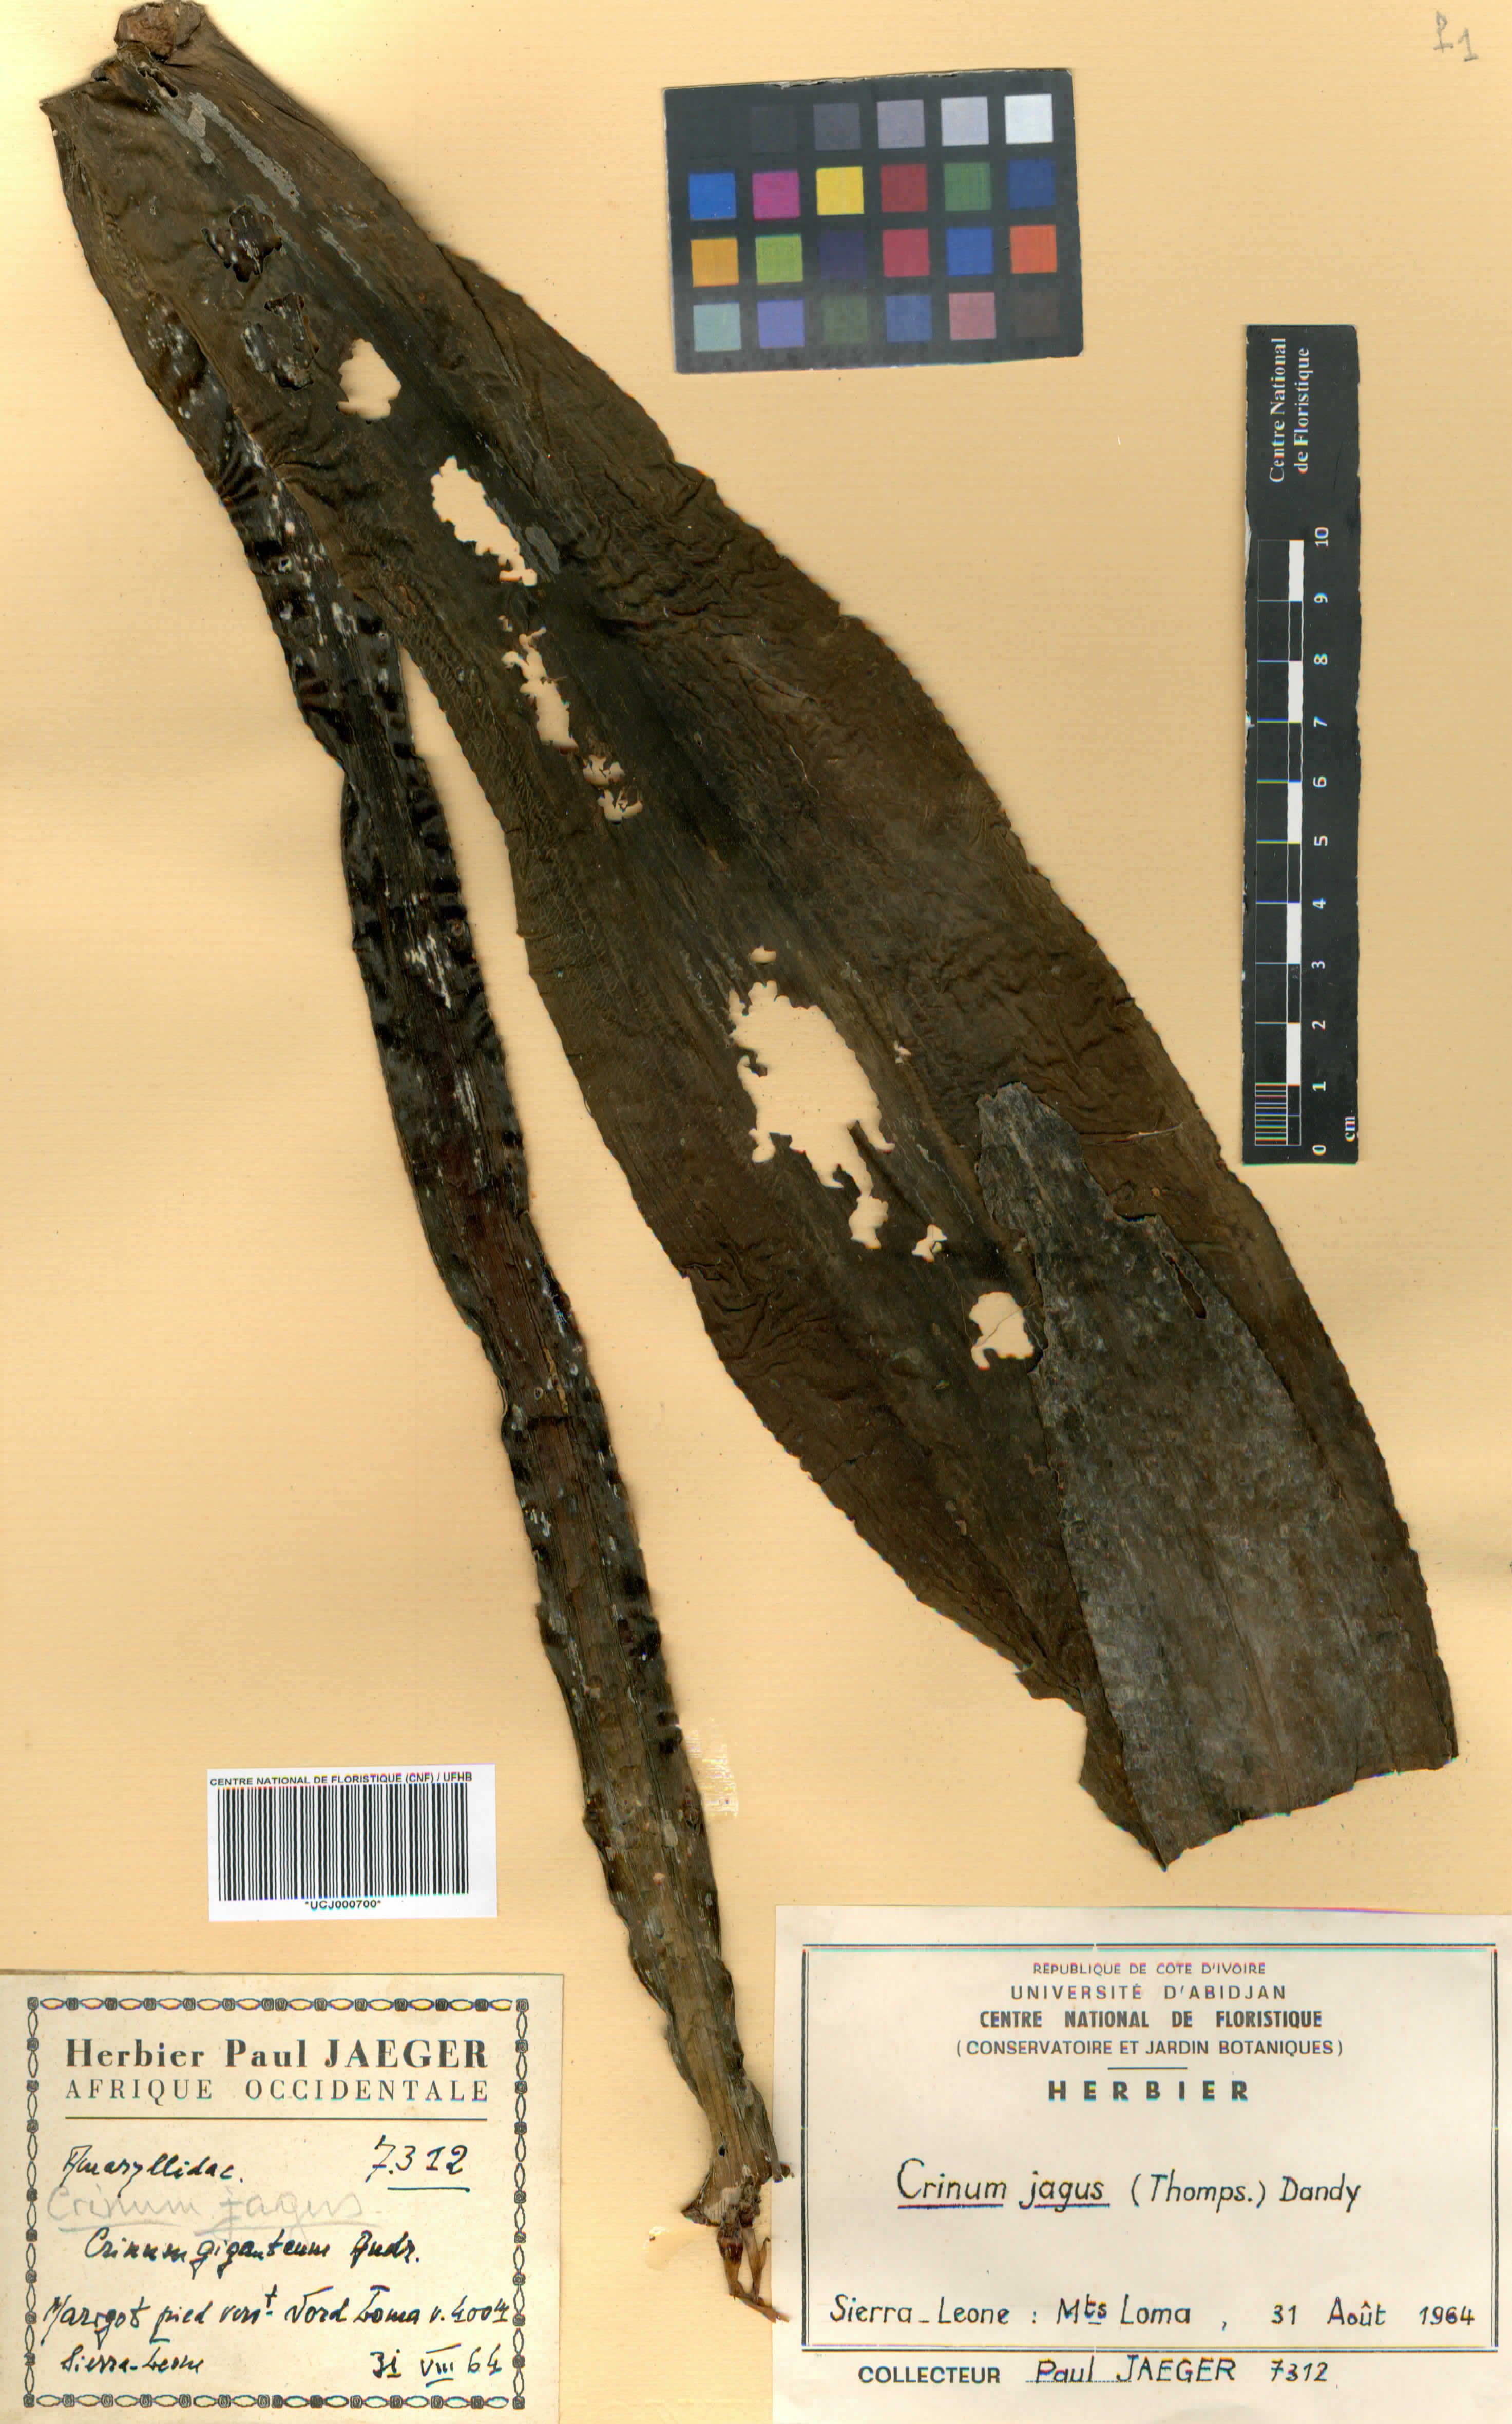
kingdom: Plantae
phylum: Tracheophyta
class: Liliopsida
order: Asparagales
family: Amaryllidaceae
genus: Crinum
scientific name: Crinum jagus
